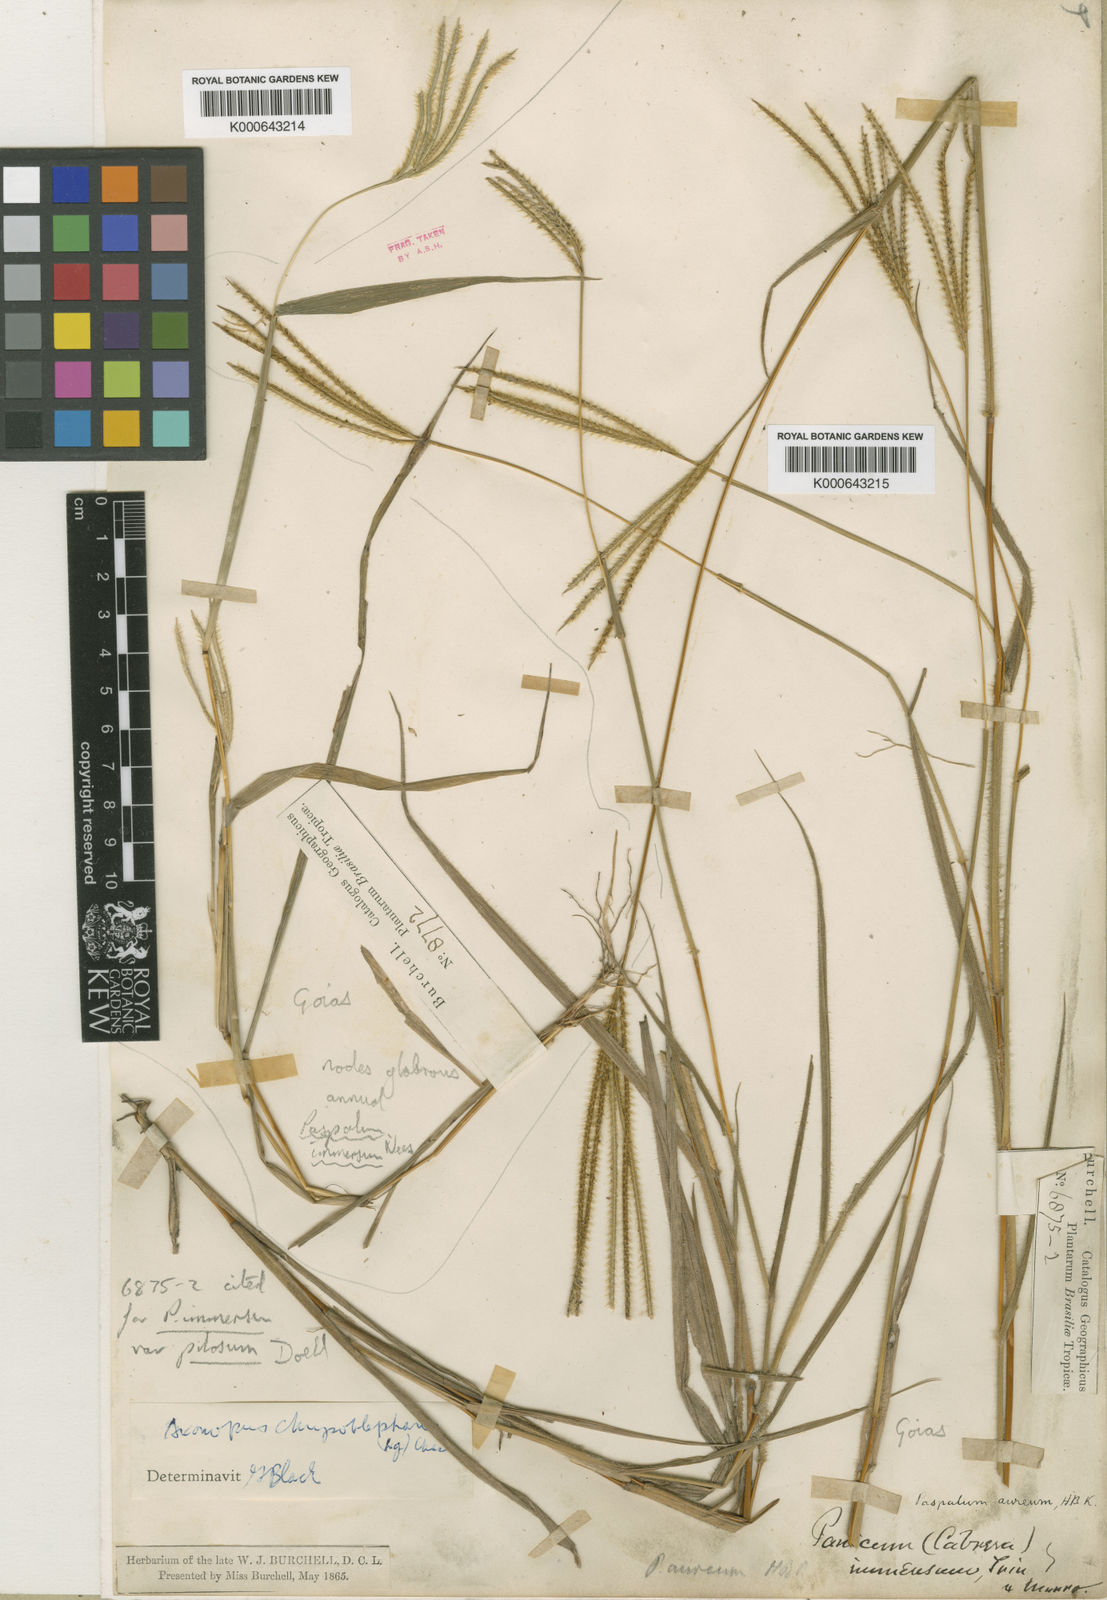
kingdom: Plantae
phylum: Tracheophyta
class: Liliopsida
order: Poales
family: Poaceae
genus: Axonopus
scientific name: Axonopus chrysoblepharis
